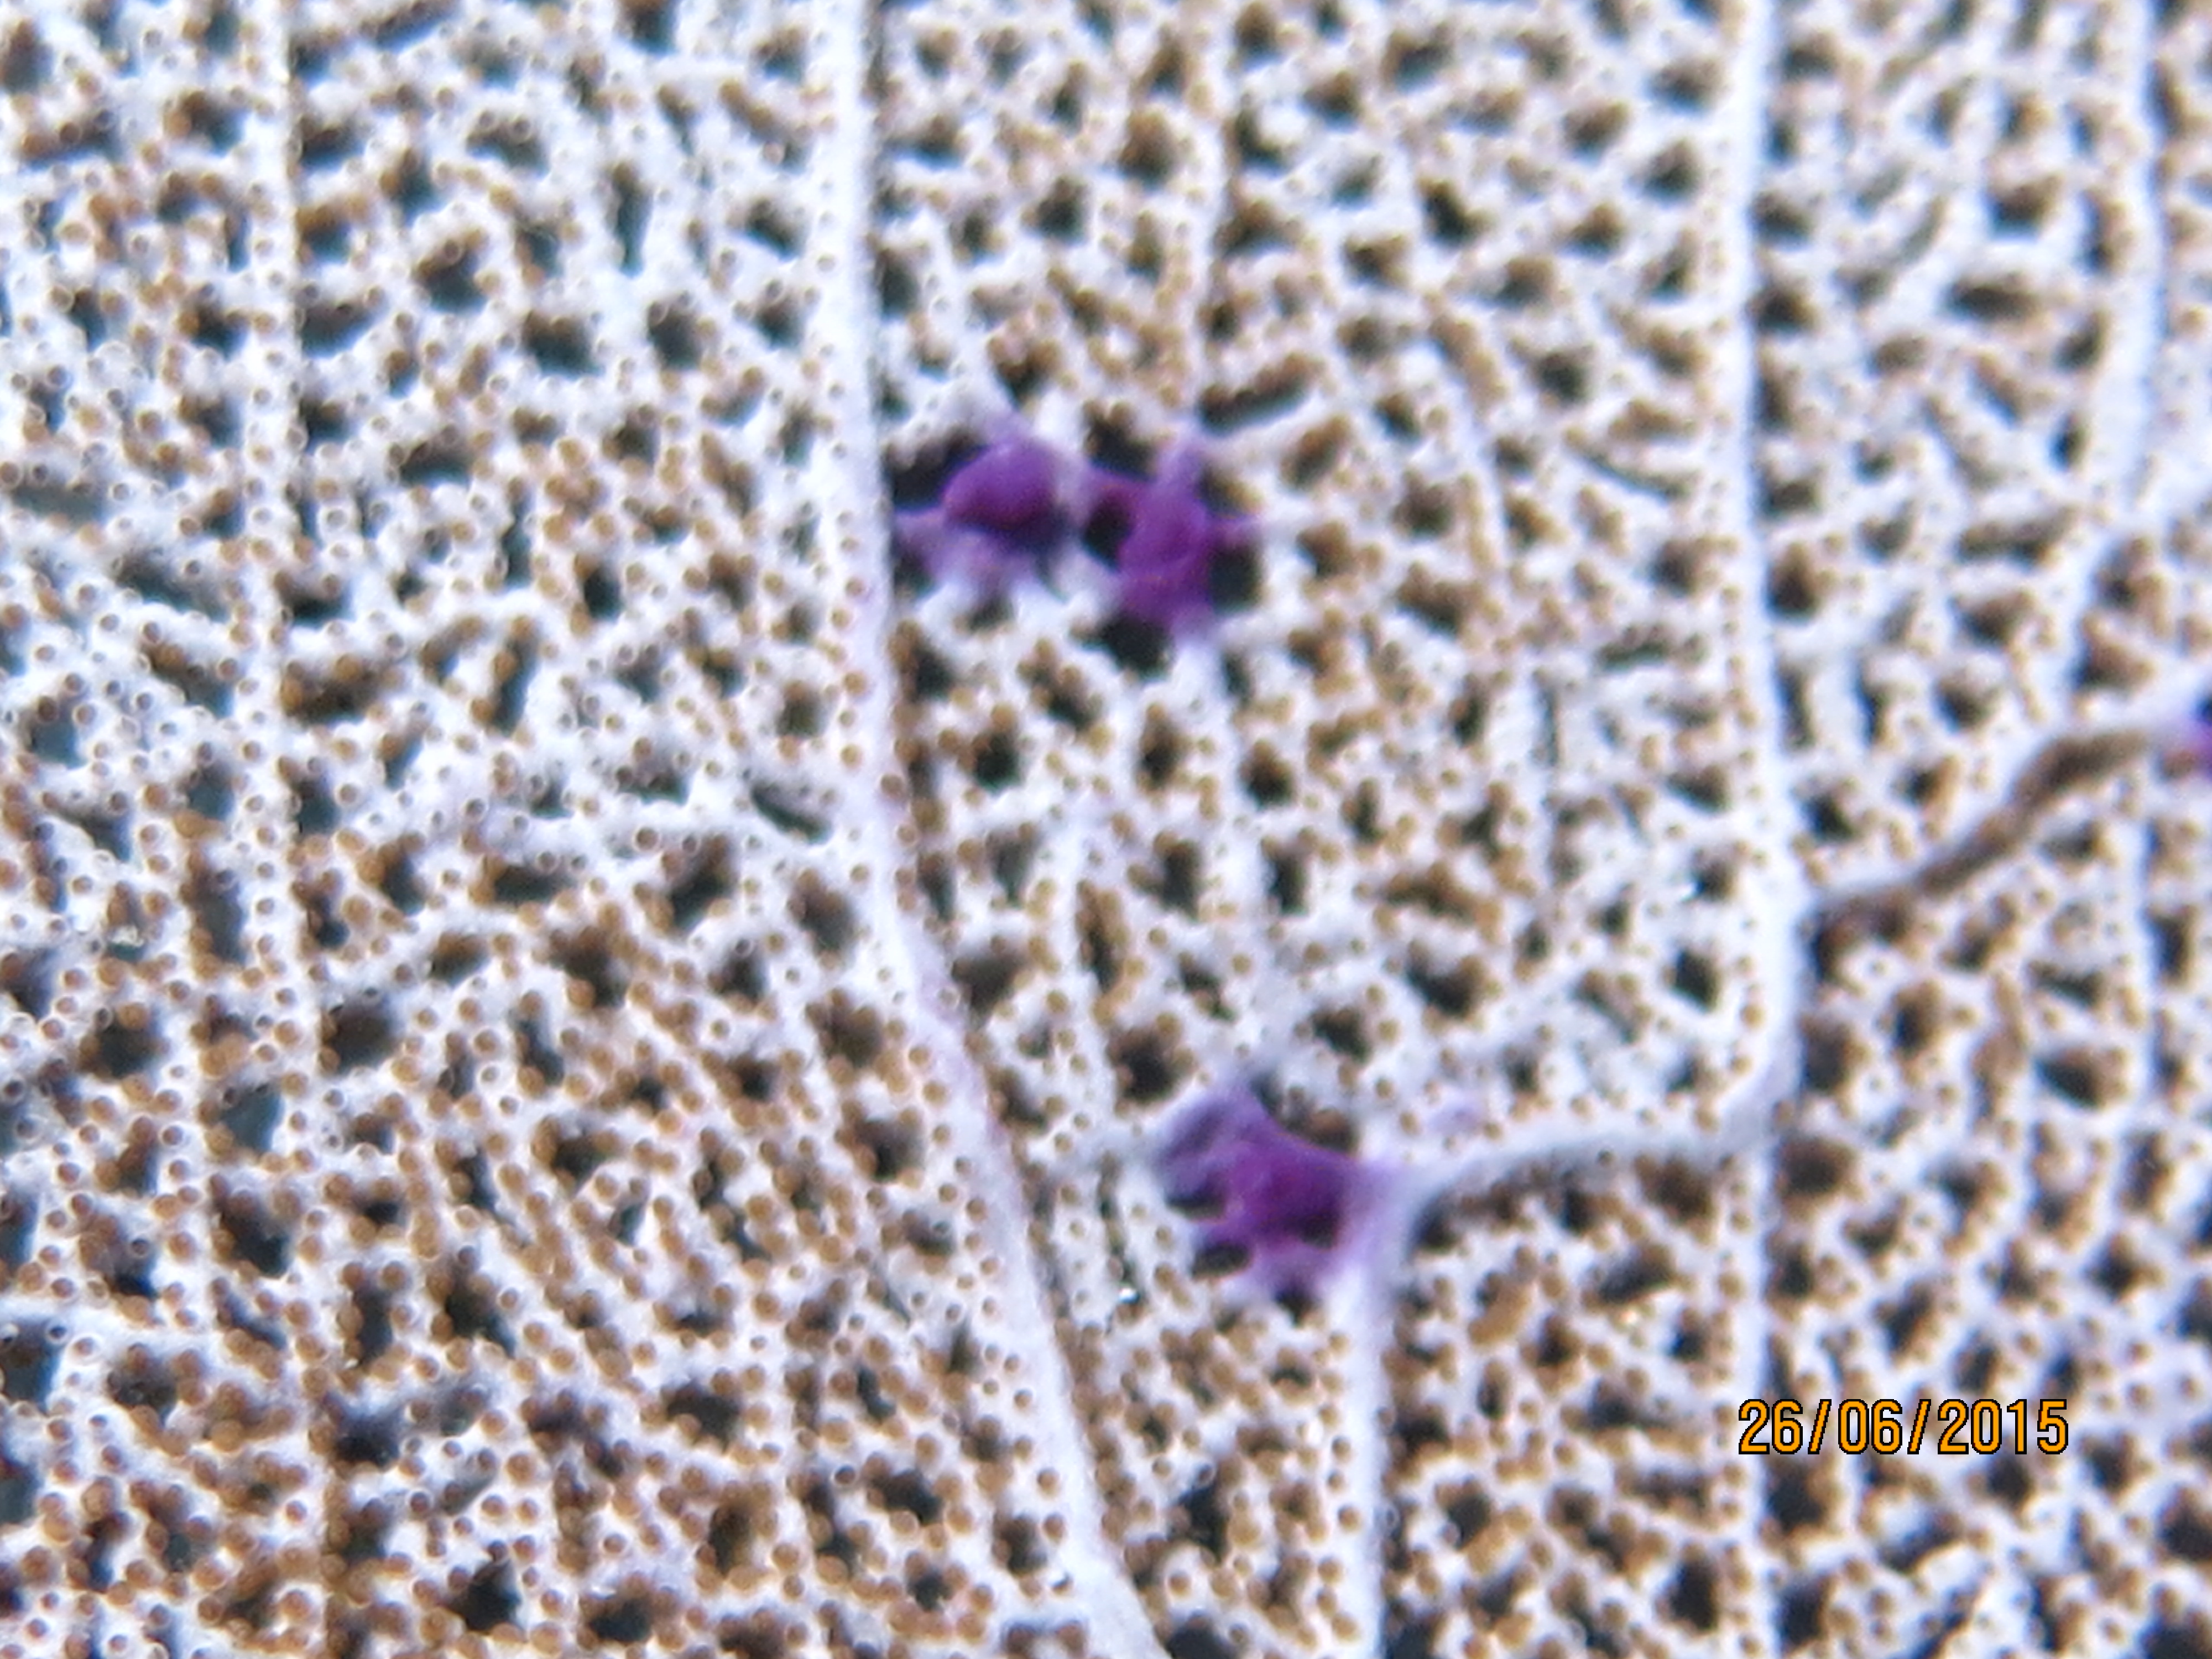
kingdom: Animalia
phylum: Cnidaria
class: Anthozoa
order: Malacalcyonacea
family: Gorgoniidae
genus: Gorgonia
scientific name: Gorgonia ventalina
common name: Common sea fan
